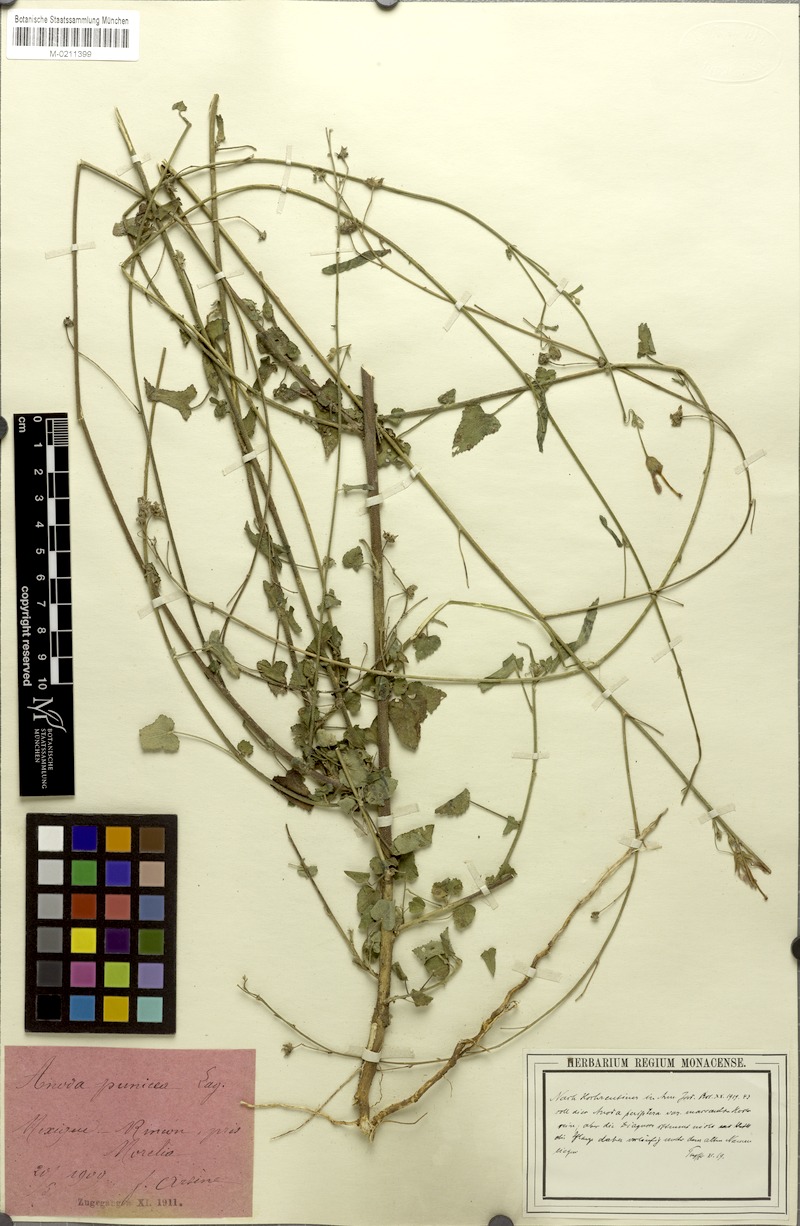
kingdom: Plantae
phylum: Tracheophyta
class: Magnoliopsida
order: Malvales
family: Malvaceae
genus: Periptera
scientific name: Periptera punicea
